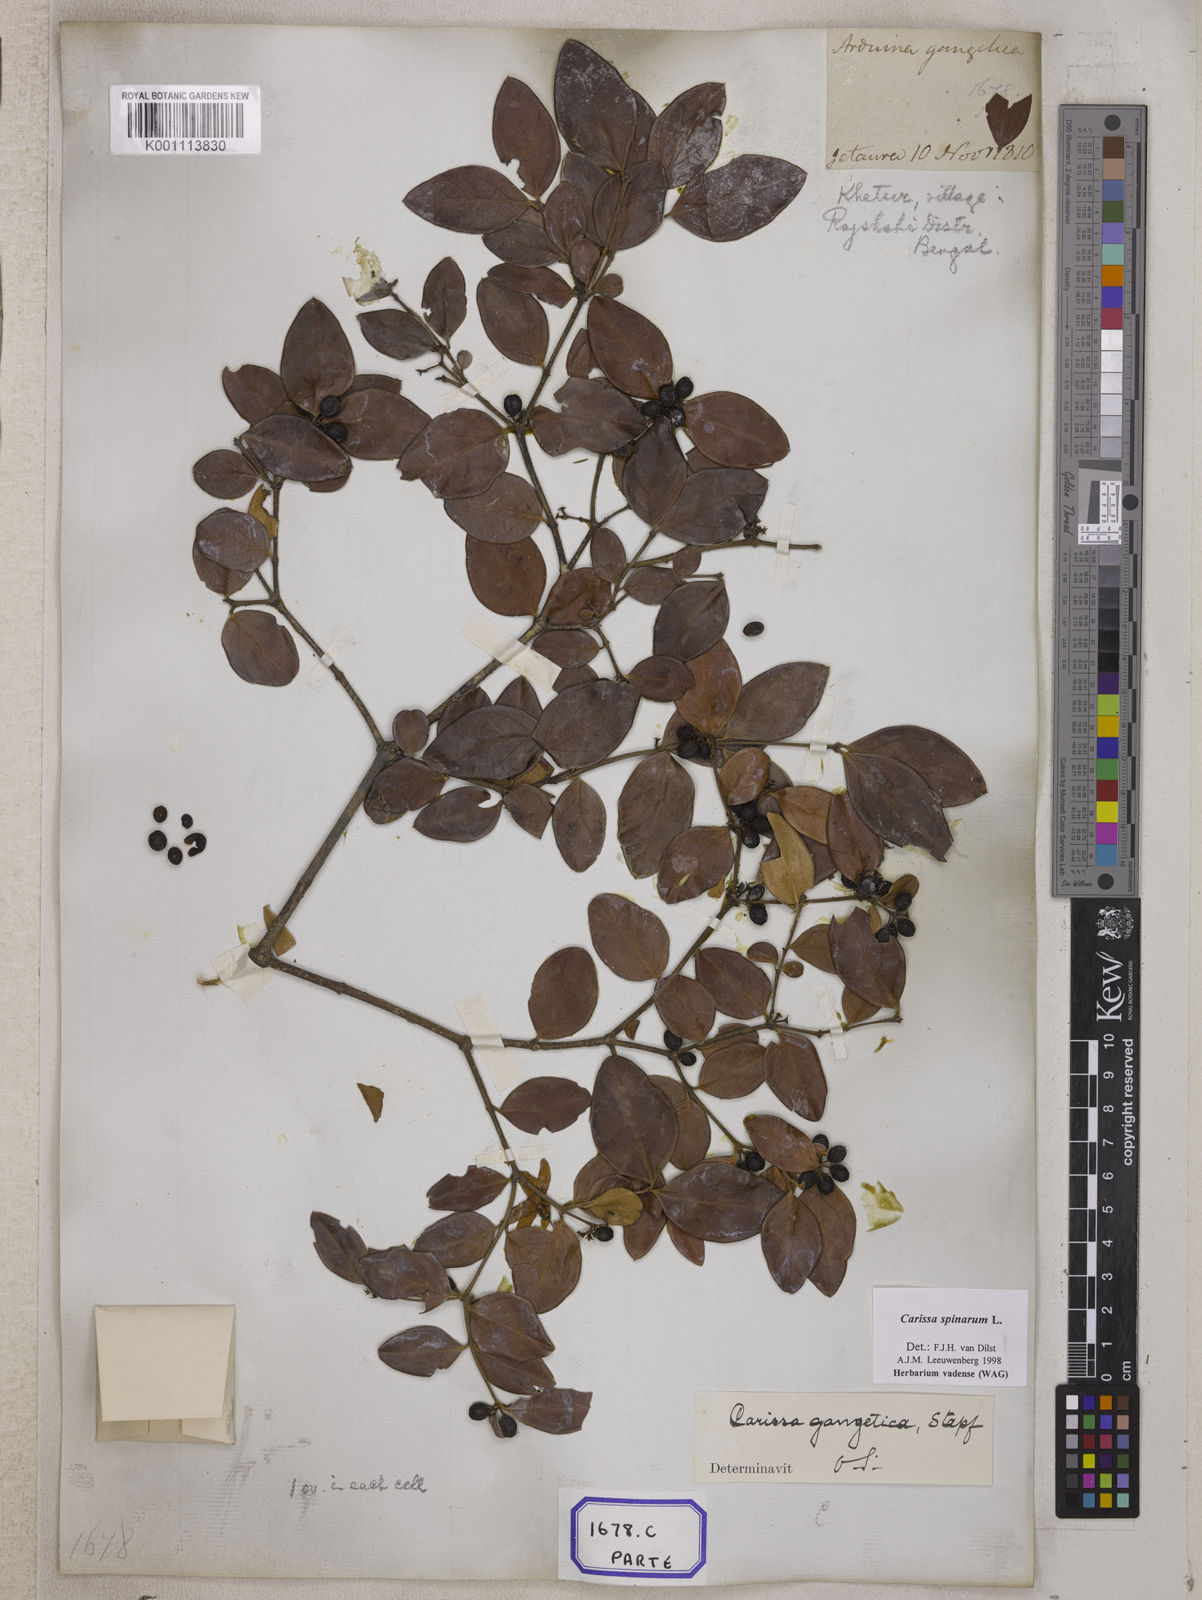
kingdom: Plantae
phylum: Tracheophyta
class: Magnoliopsida
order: Gentianales
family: Apocynaceae
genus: Carissa
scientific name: Carissa spinarum
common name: Egyptian carissa
